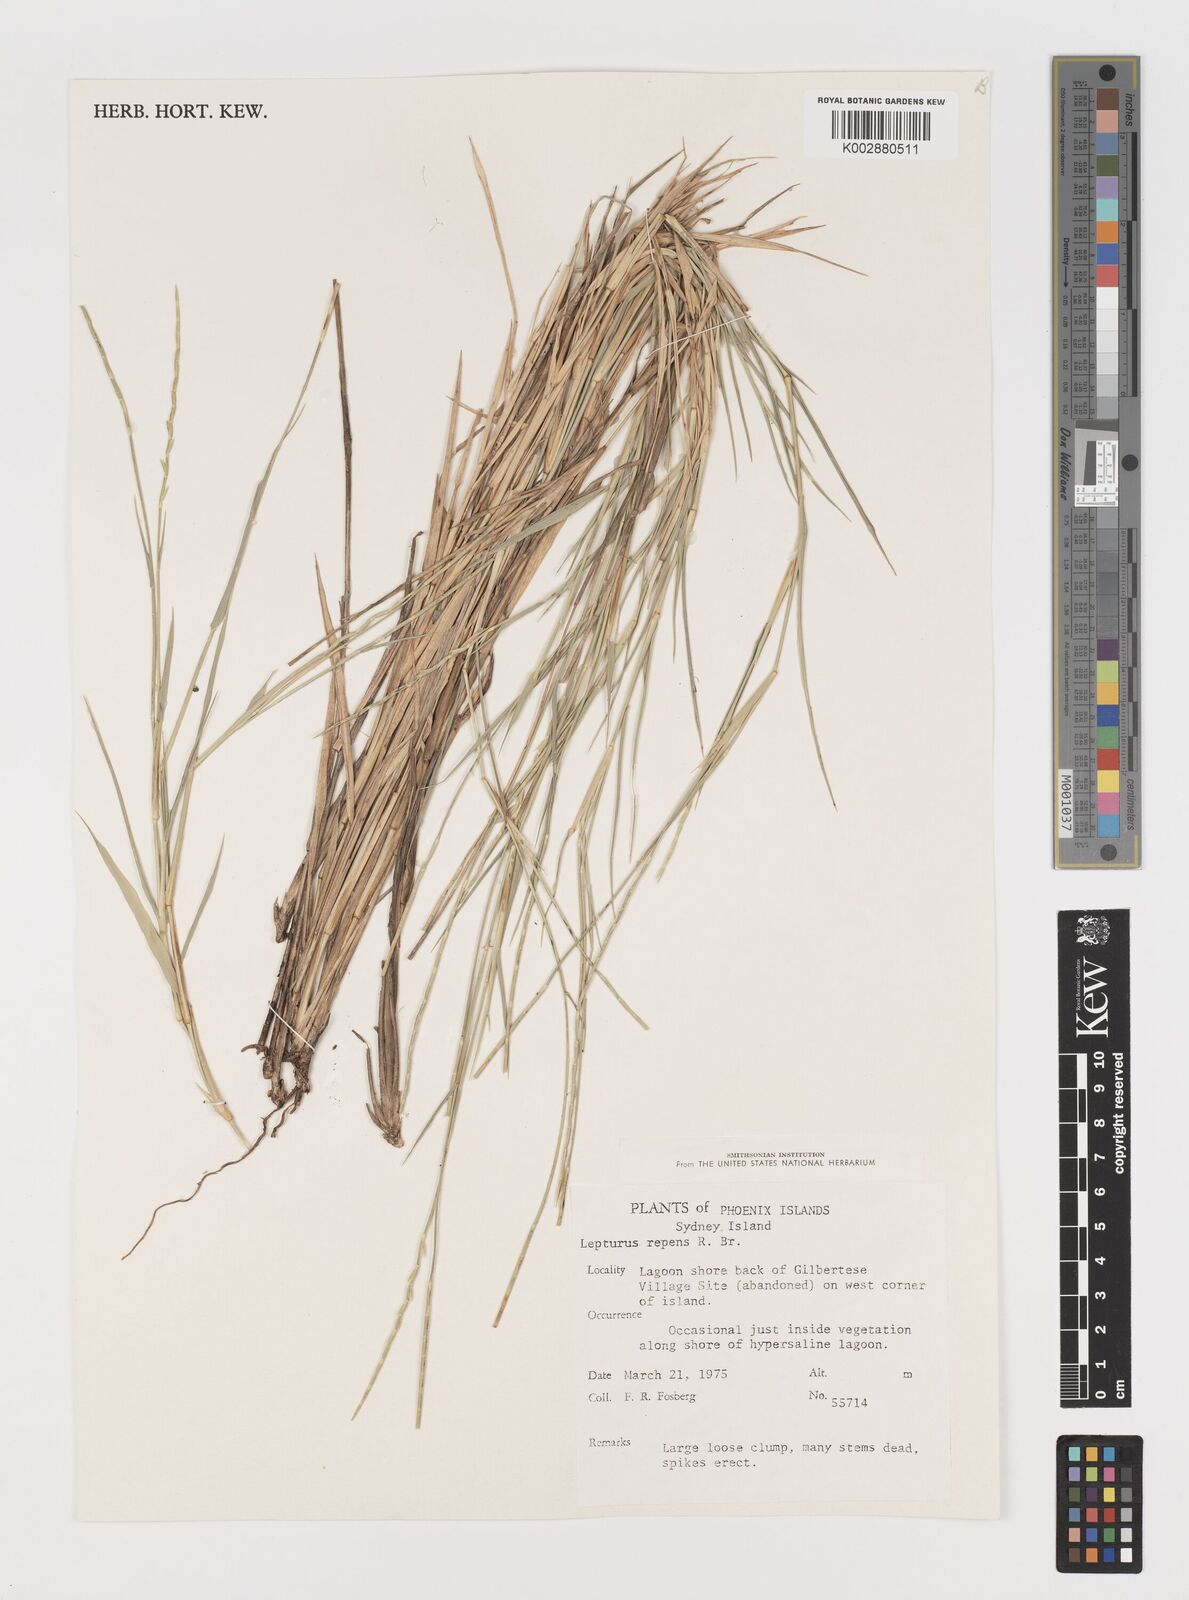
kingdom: Plantae
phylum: Tracheophyta
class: Liliopsida
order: Poales
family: Poaceae
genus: Lepturus
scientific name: Lepturus repens
